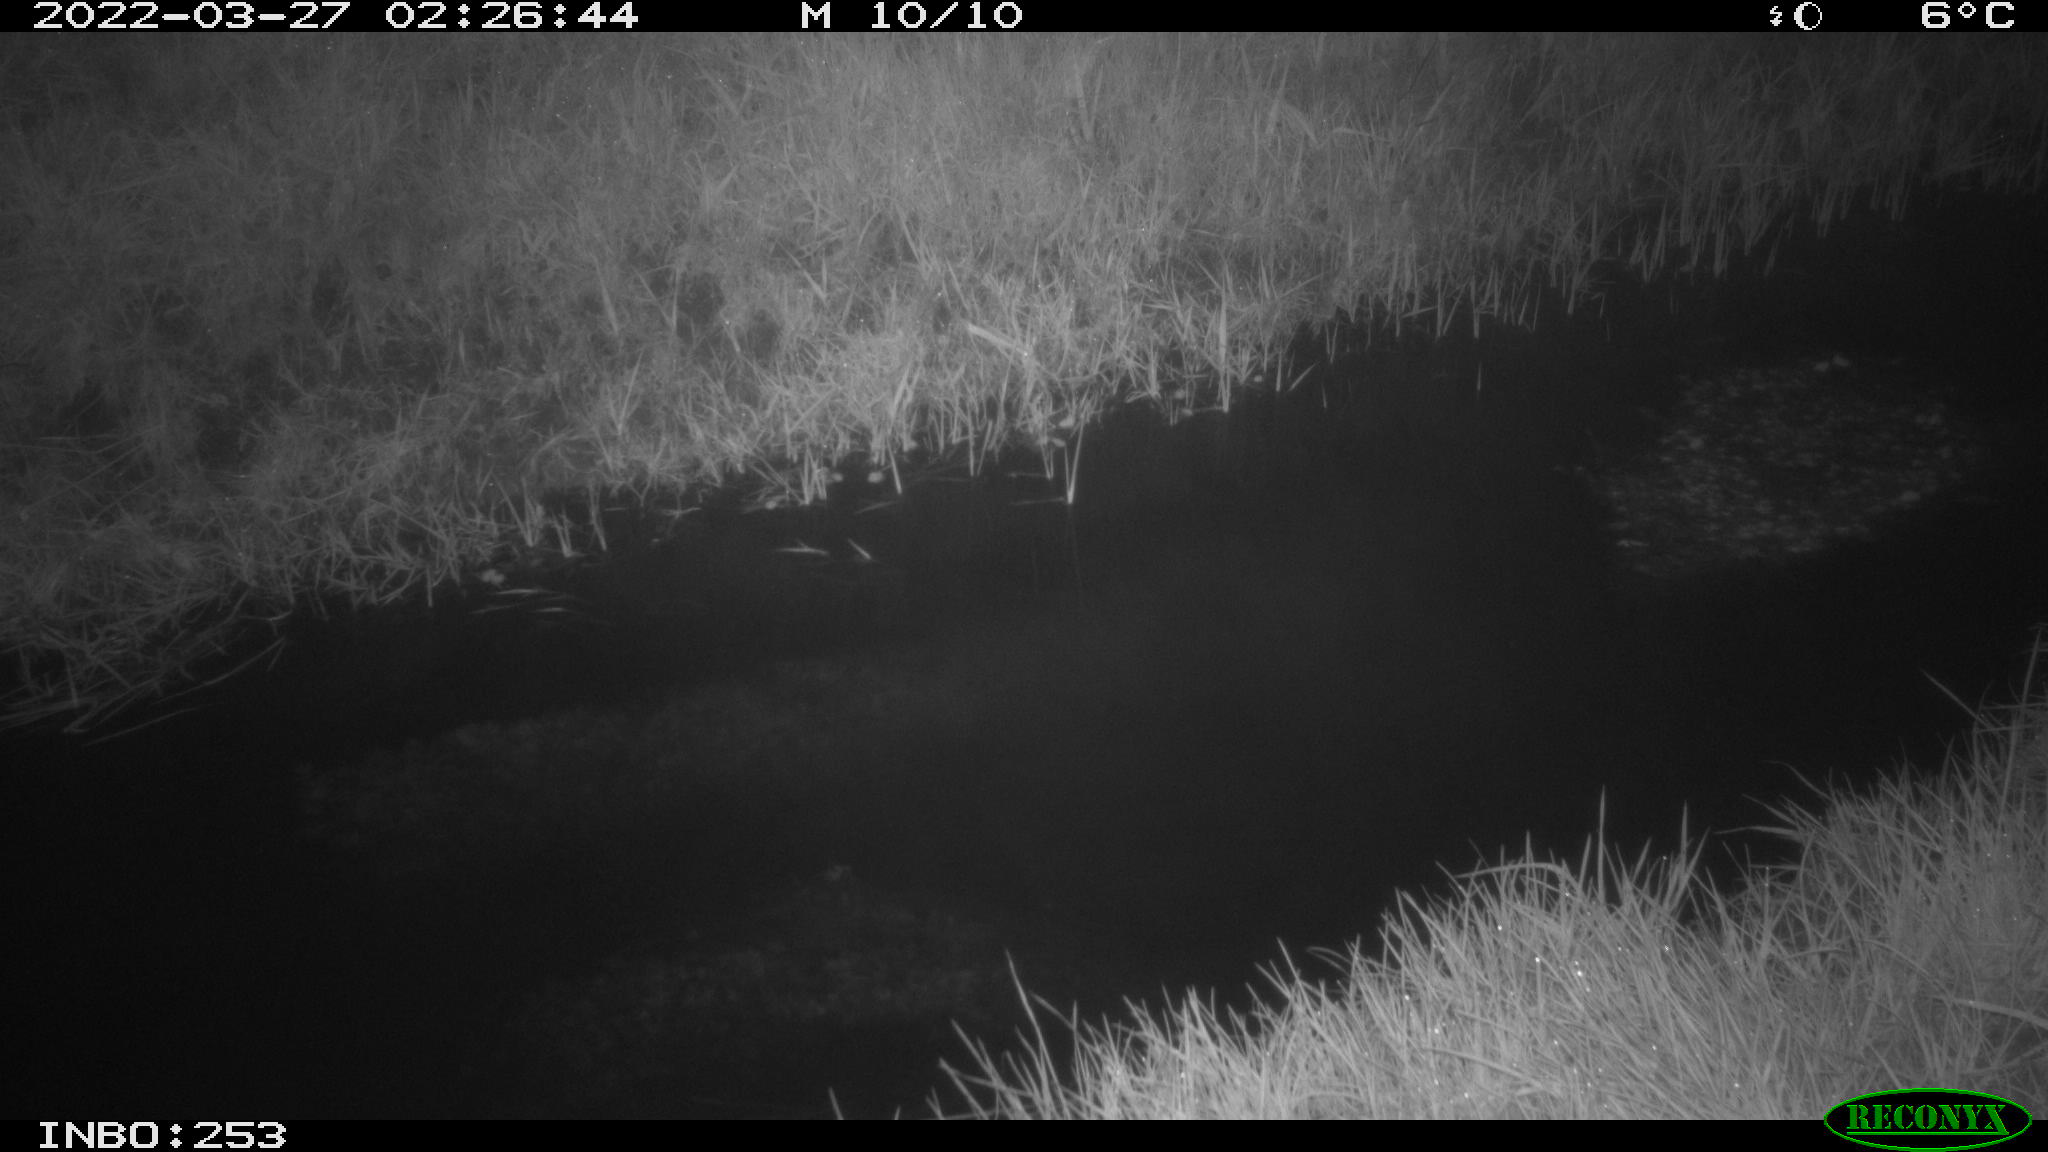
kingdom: Animalia
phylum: Chordata
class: Aves
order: Anseriformes
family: Anatidae
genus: Anas
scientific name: Anas platyrhynchos
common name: Mallard
